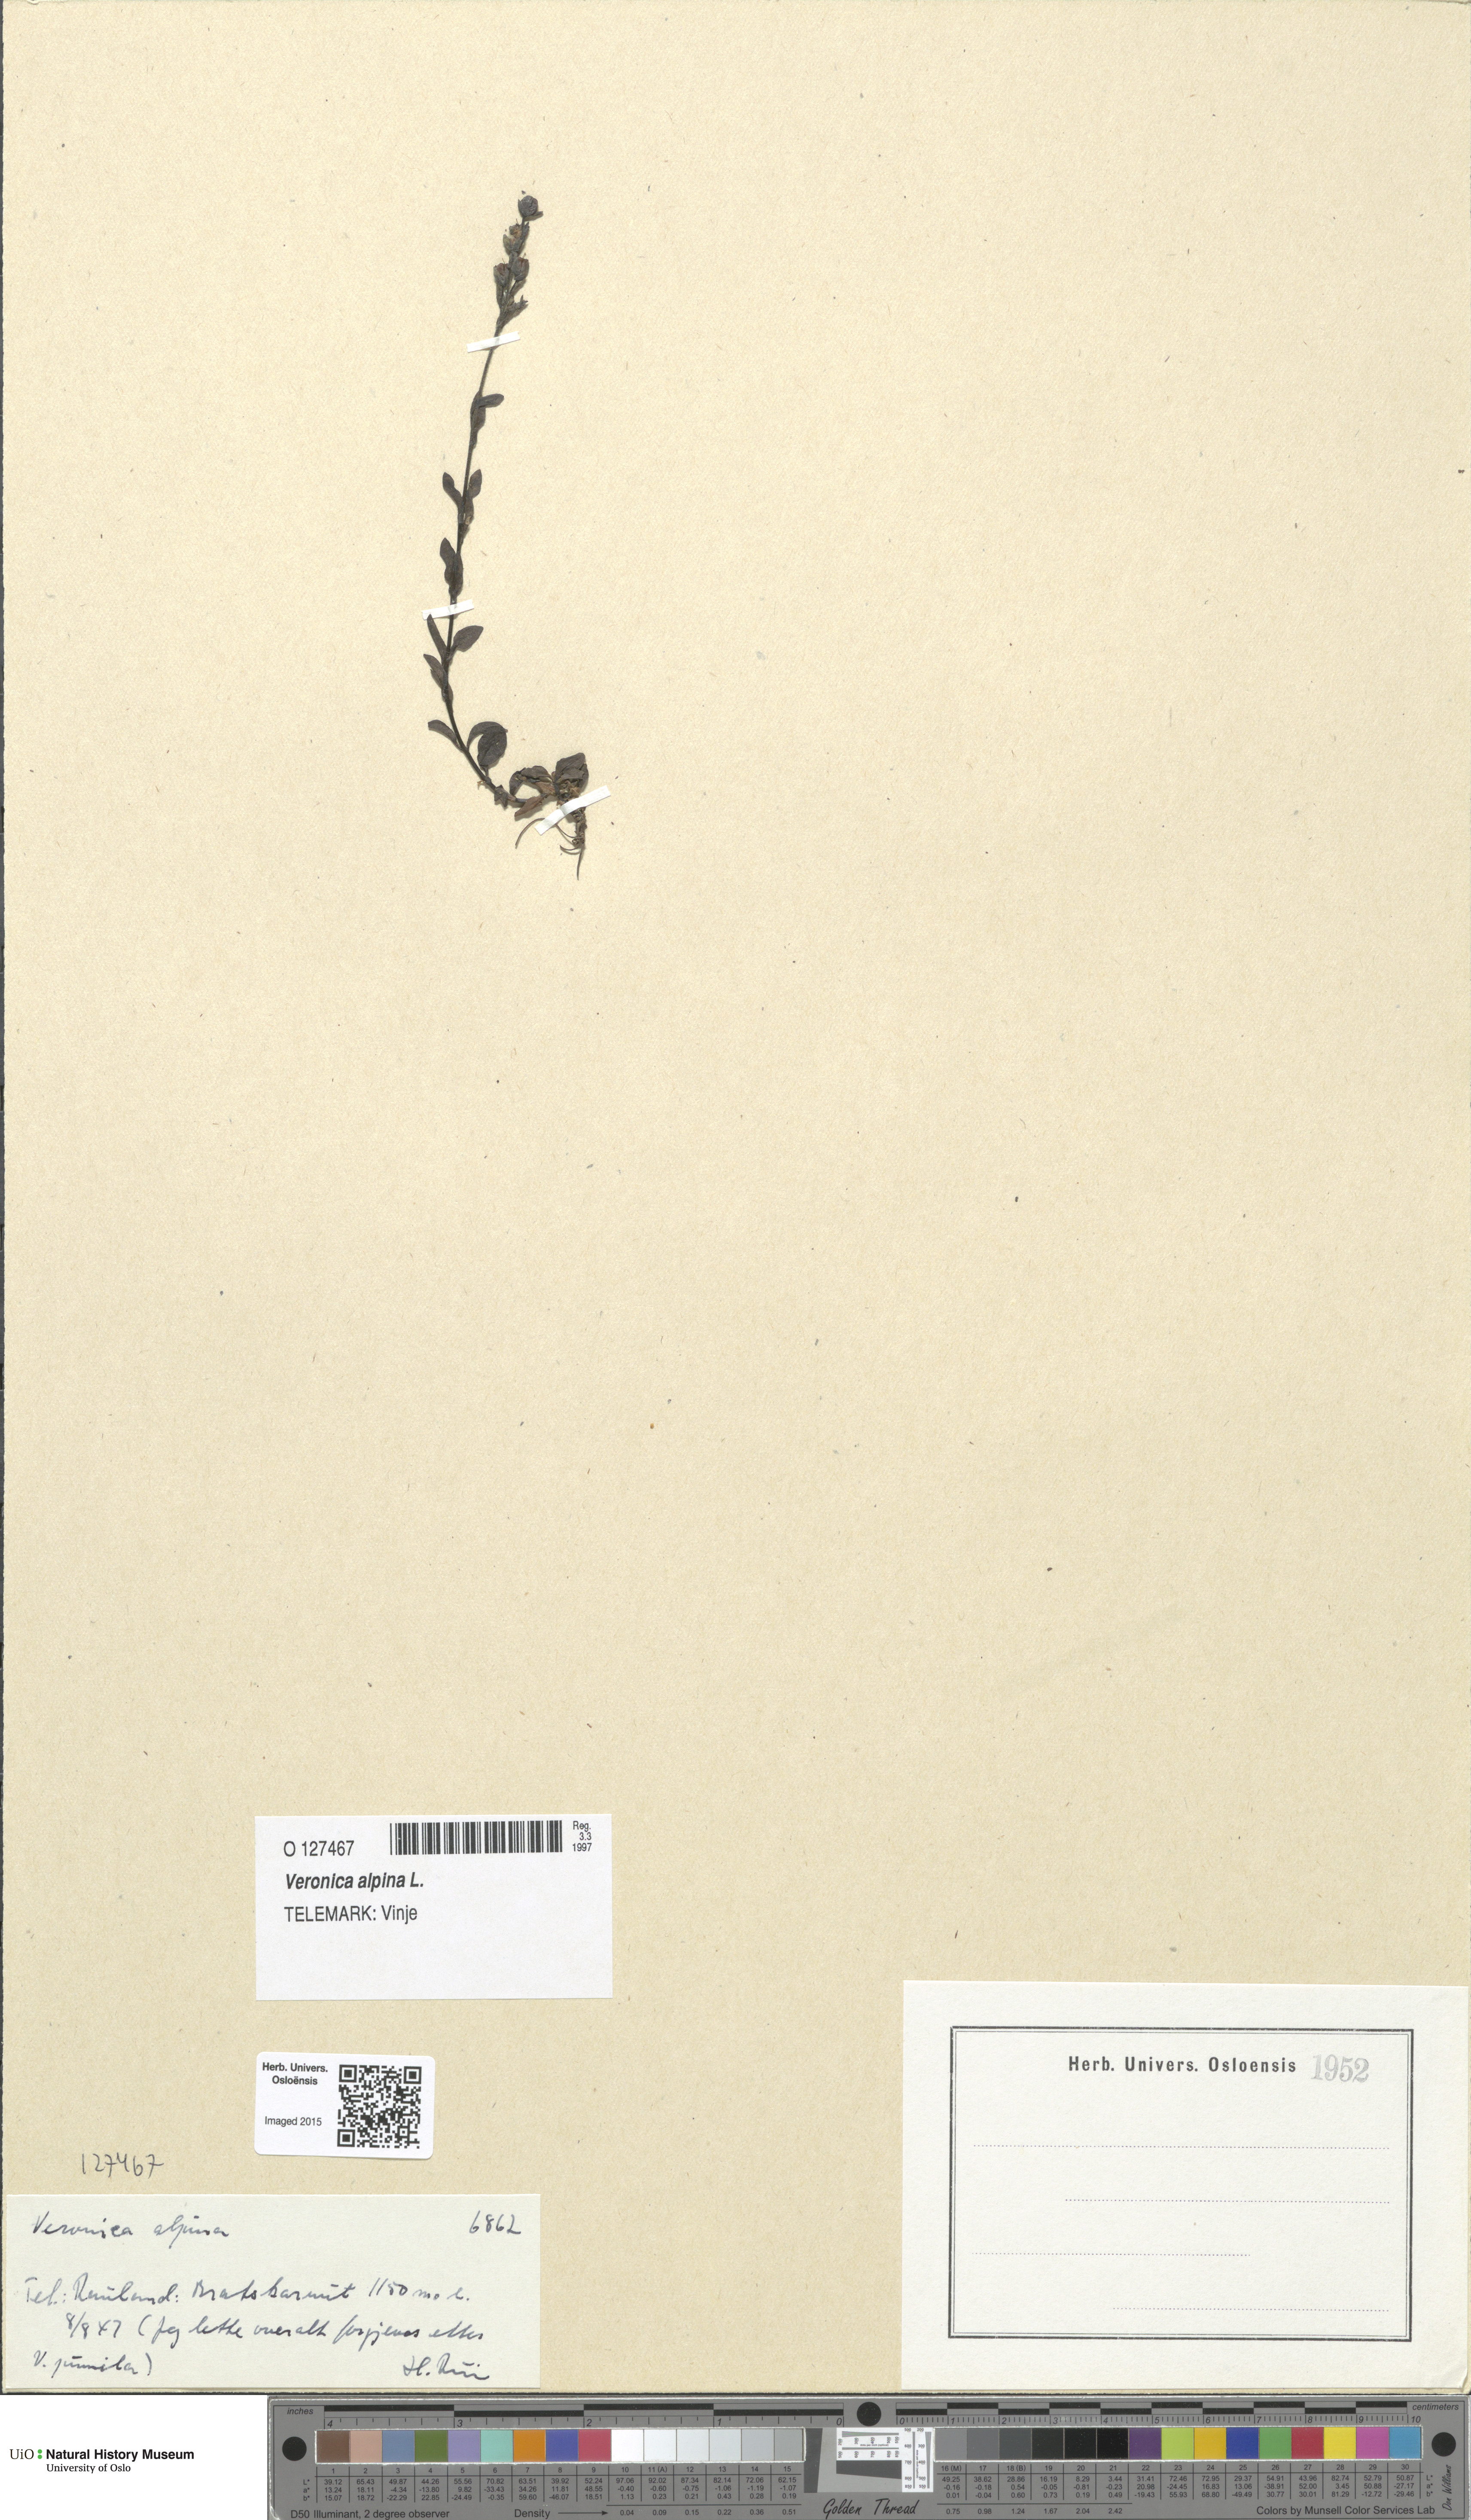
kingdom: Plantae
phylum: Tracheophyta
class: Magnoliopsida
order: Lamiales
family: Plantaginaceae
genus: Veronica
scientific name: Veronica alpina
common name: Alpine speedwell
